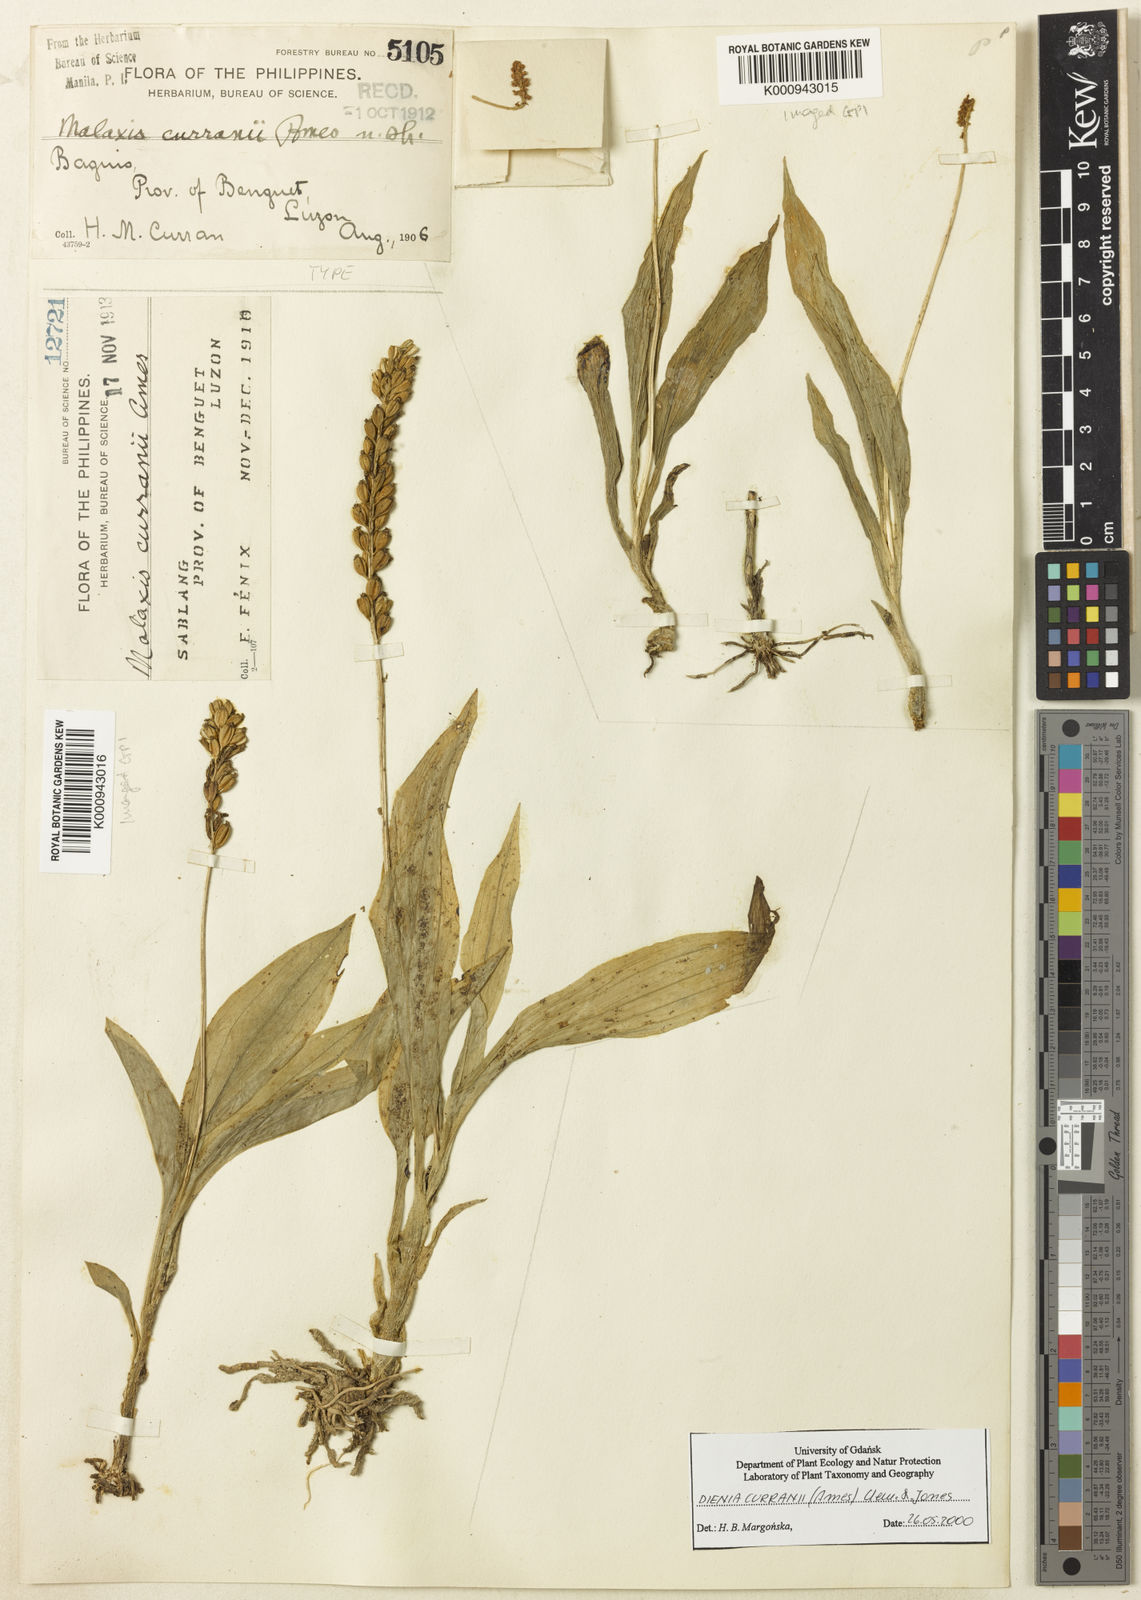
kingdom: Plantae
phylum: Tracheophyta
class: Liliopsida
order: Asparagales
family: Orchidaceae
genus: Dienia
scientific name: Dienia ophrydis
